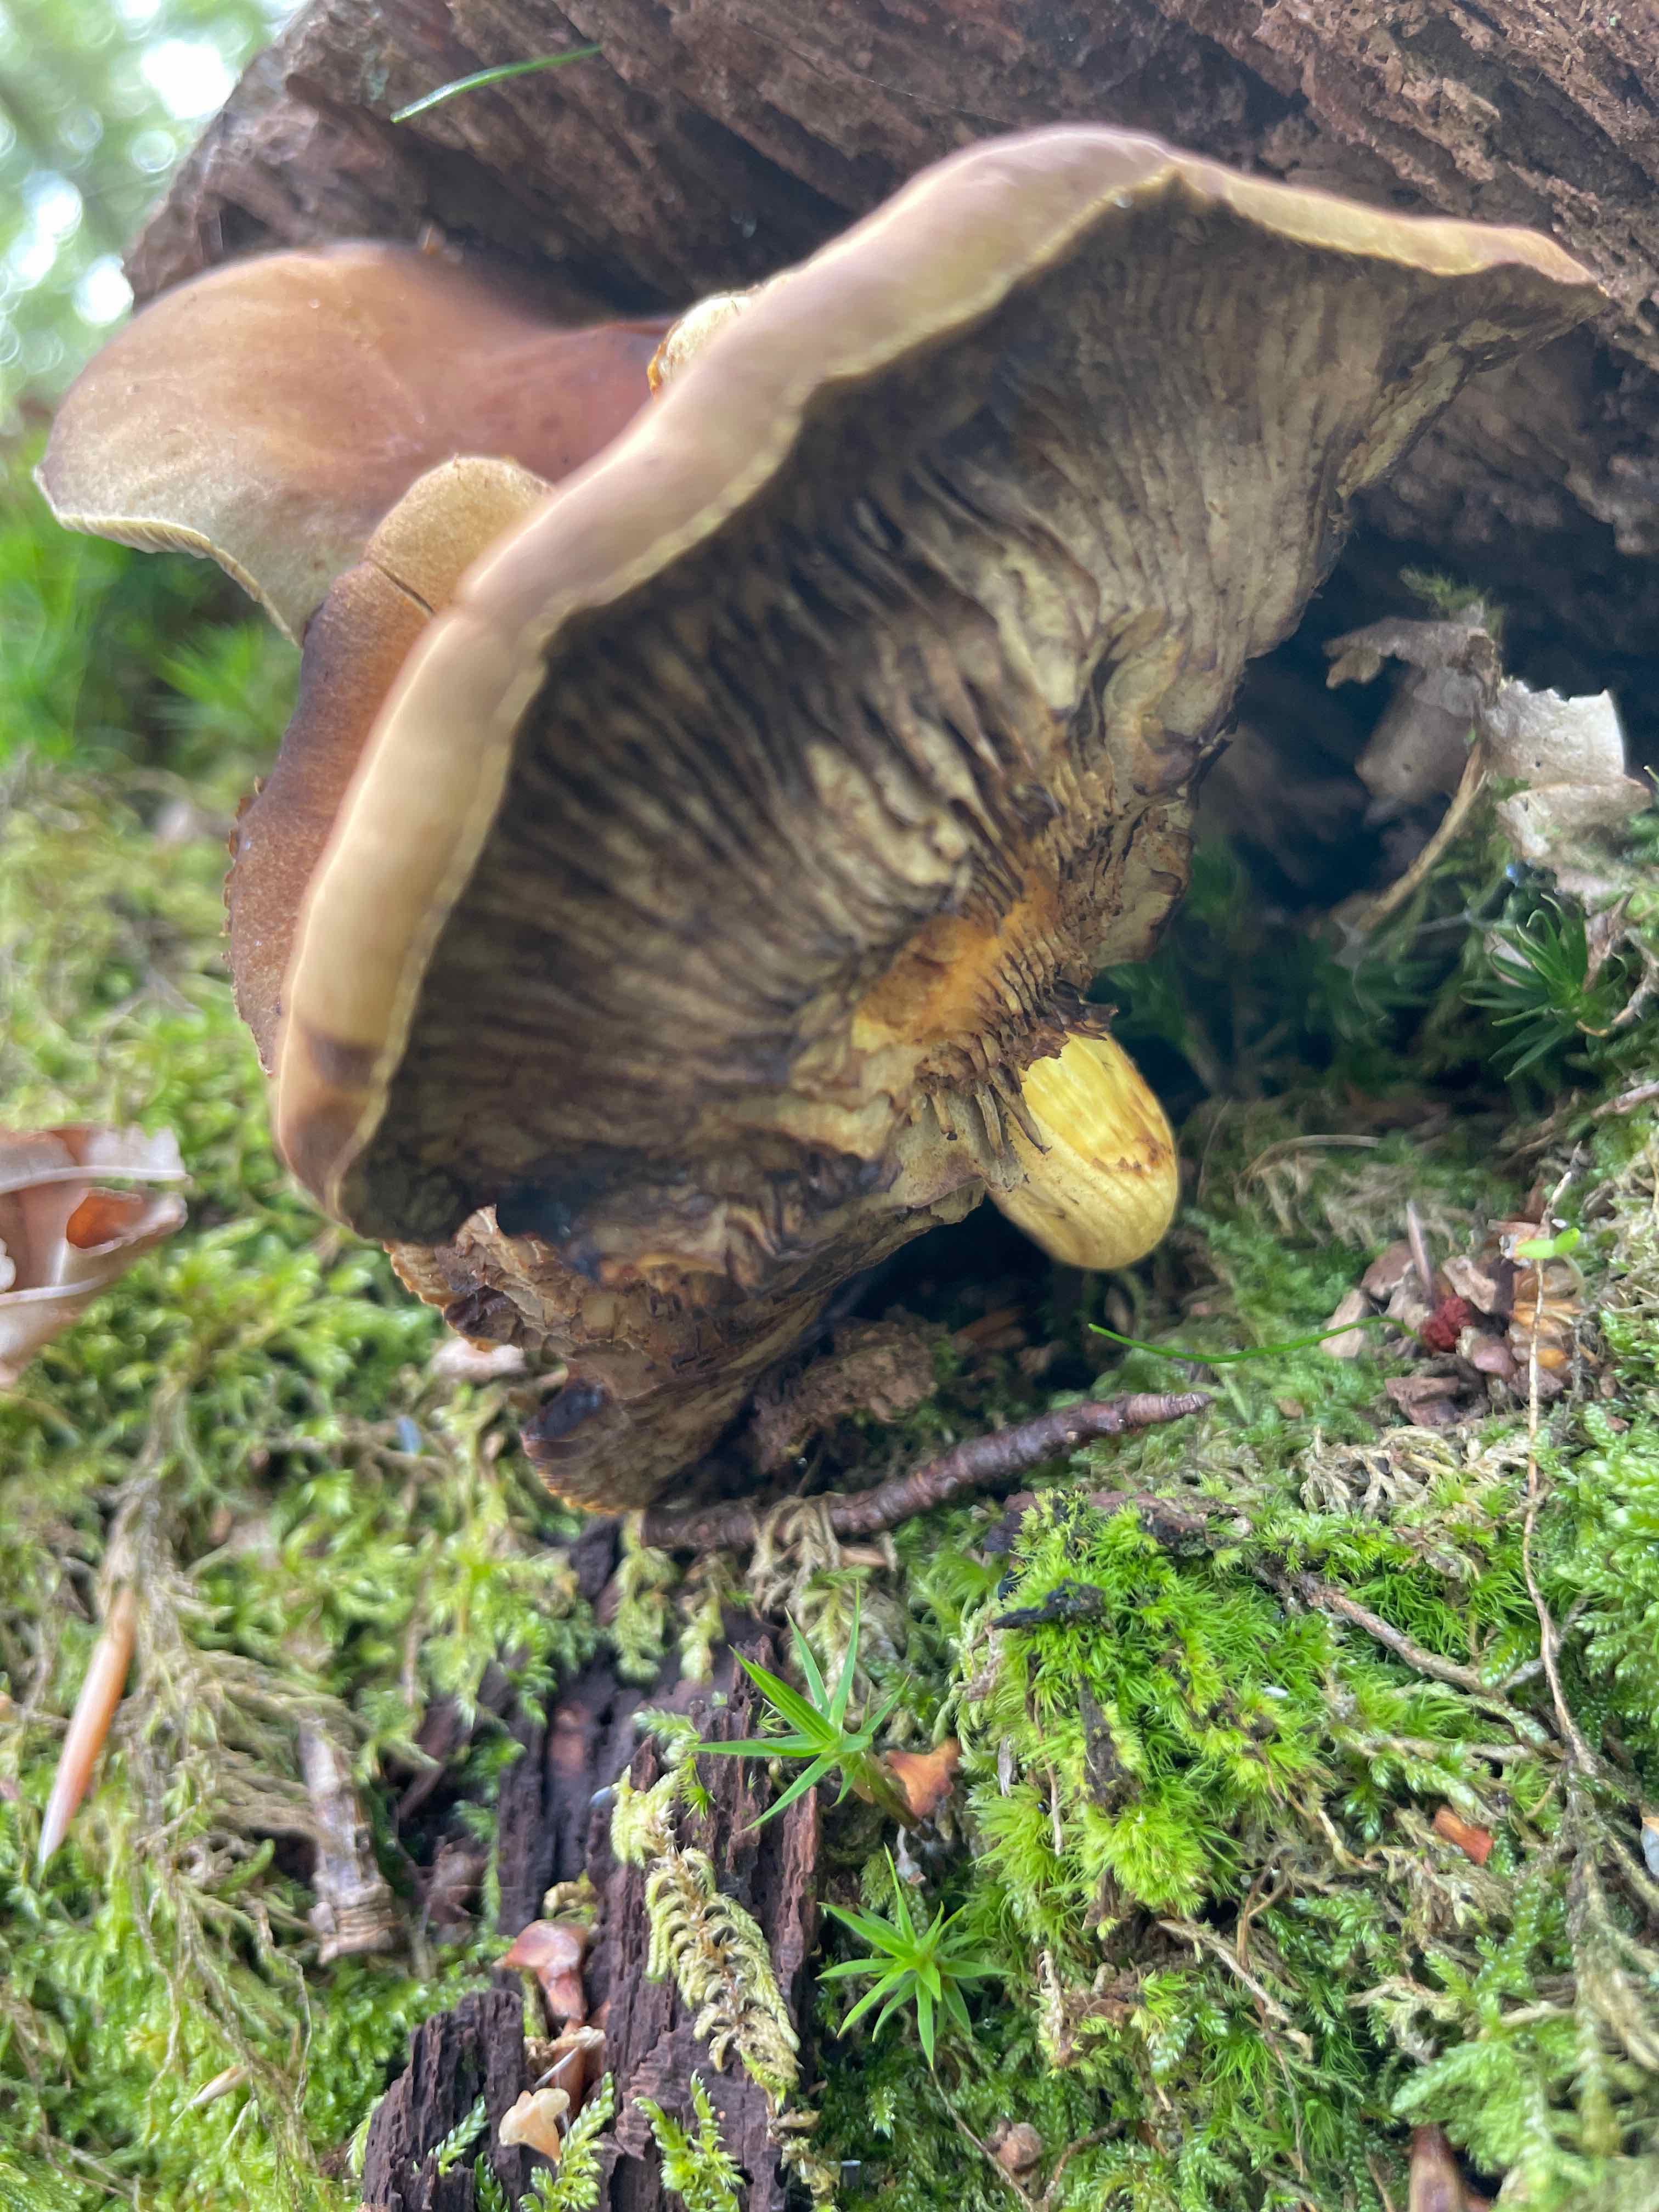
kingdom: Fungi
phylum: Basidiomycota
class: Agaricomycetes
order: Agaricales
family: Strophariaceae
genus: Hypholoma
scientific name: Hypholoma fasciculare
